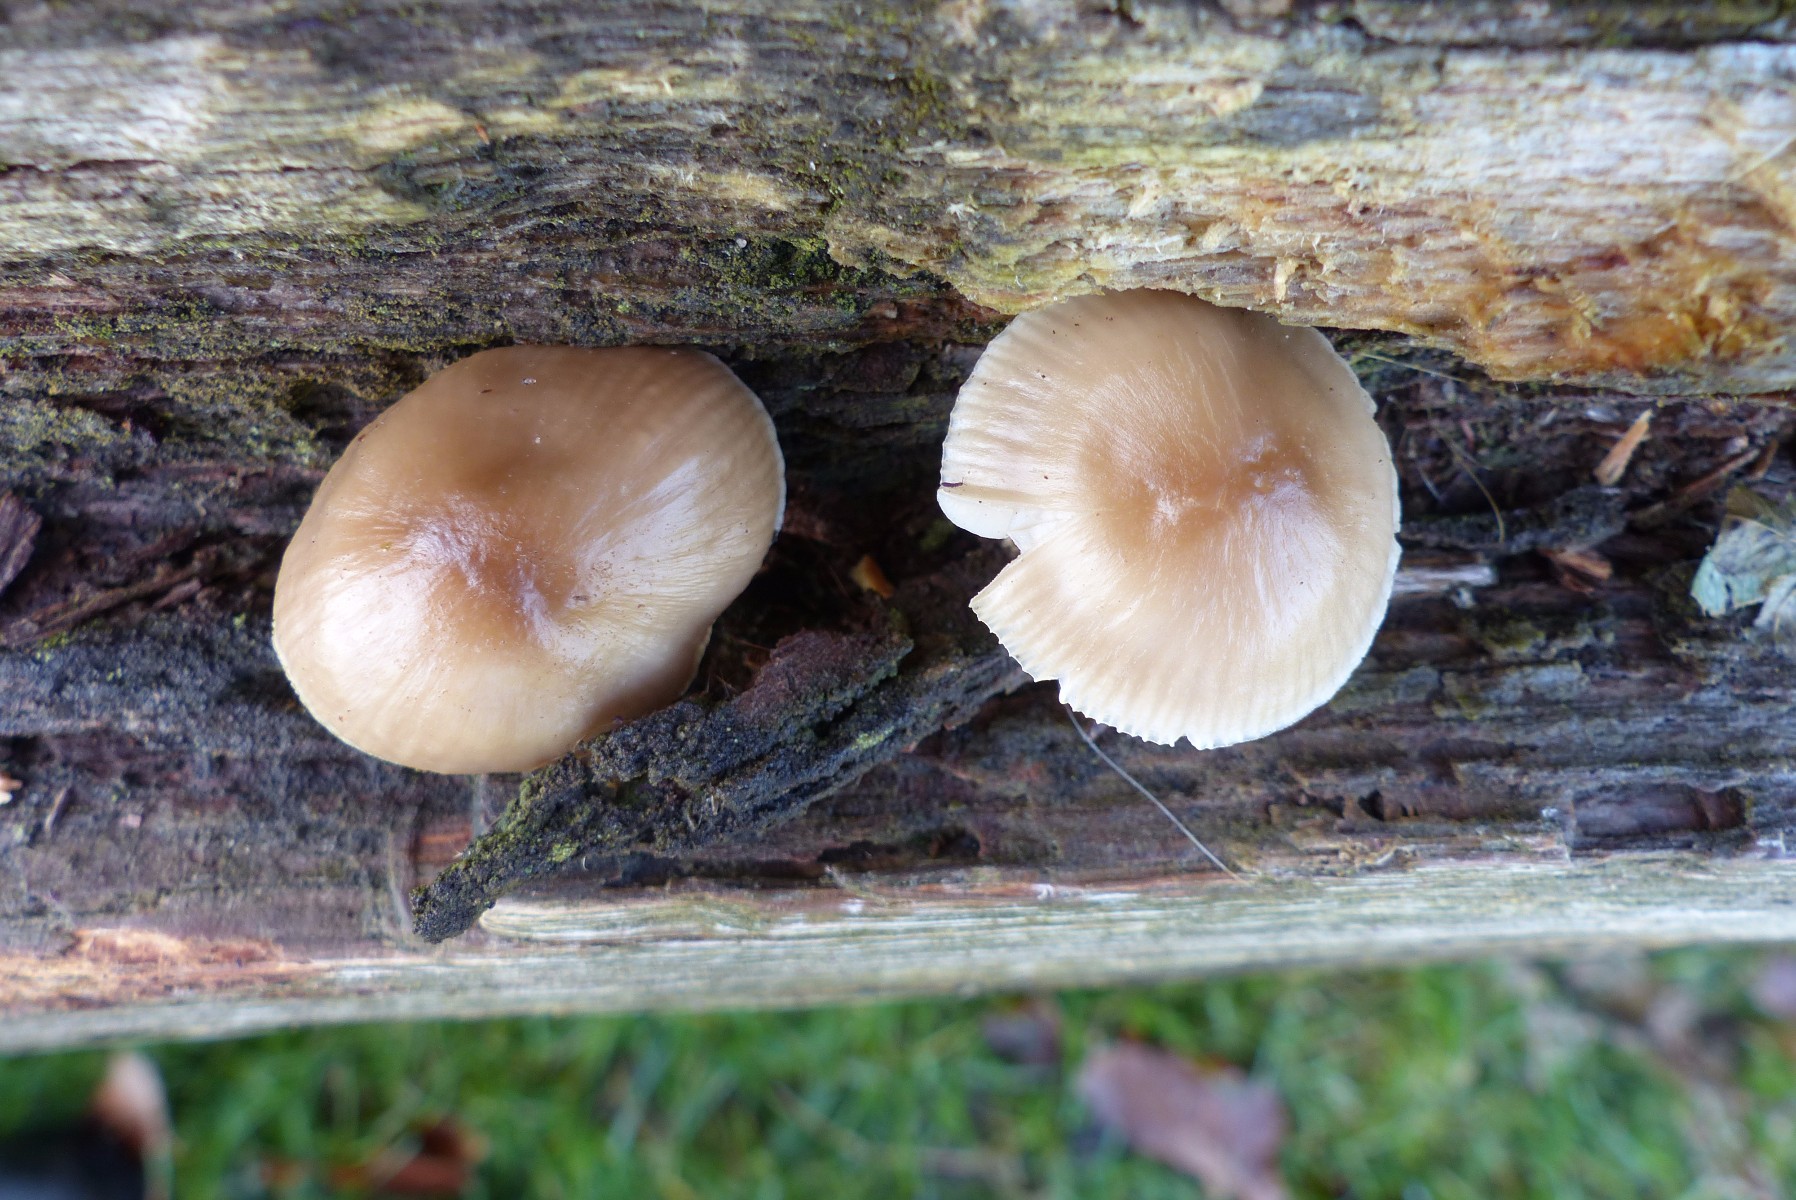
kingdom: Fungi
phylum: Basidiomycota
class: Agaricomycetes
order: Agaricales
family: Mycenaceae
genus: Mycena
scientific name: Mycena galericulata
